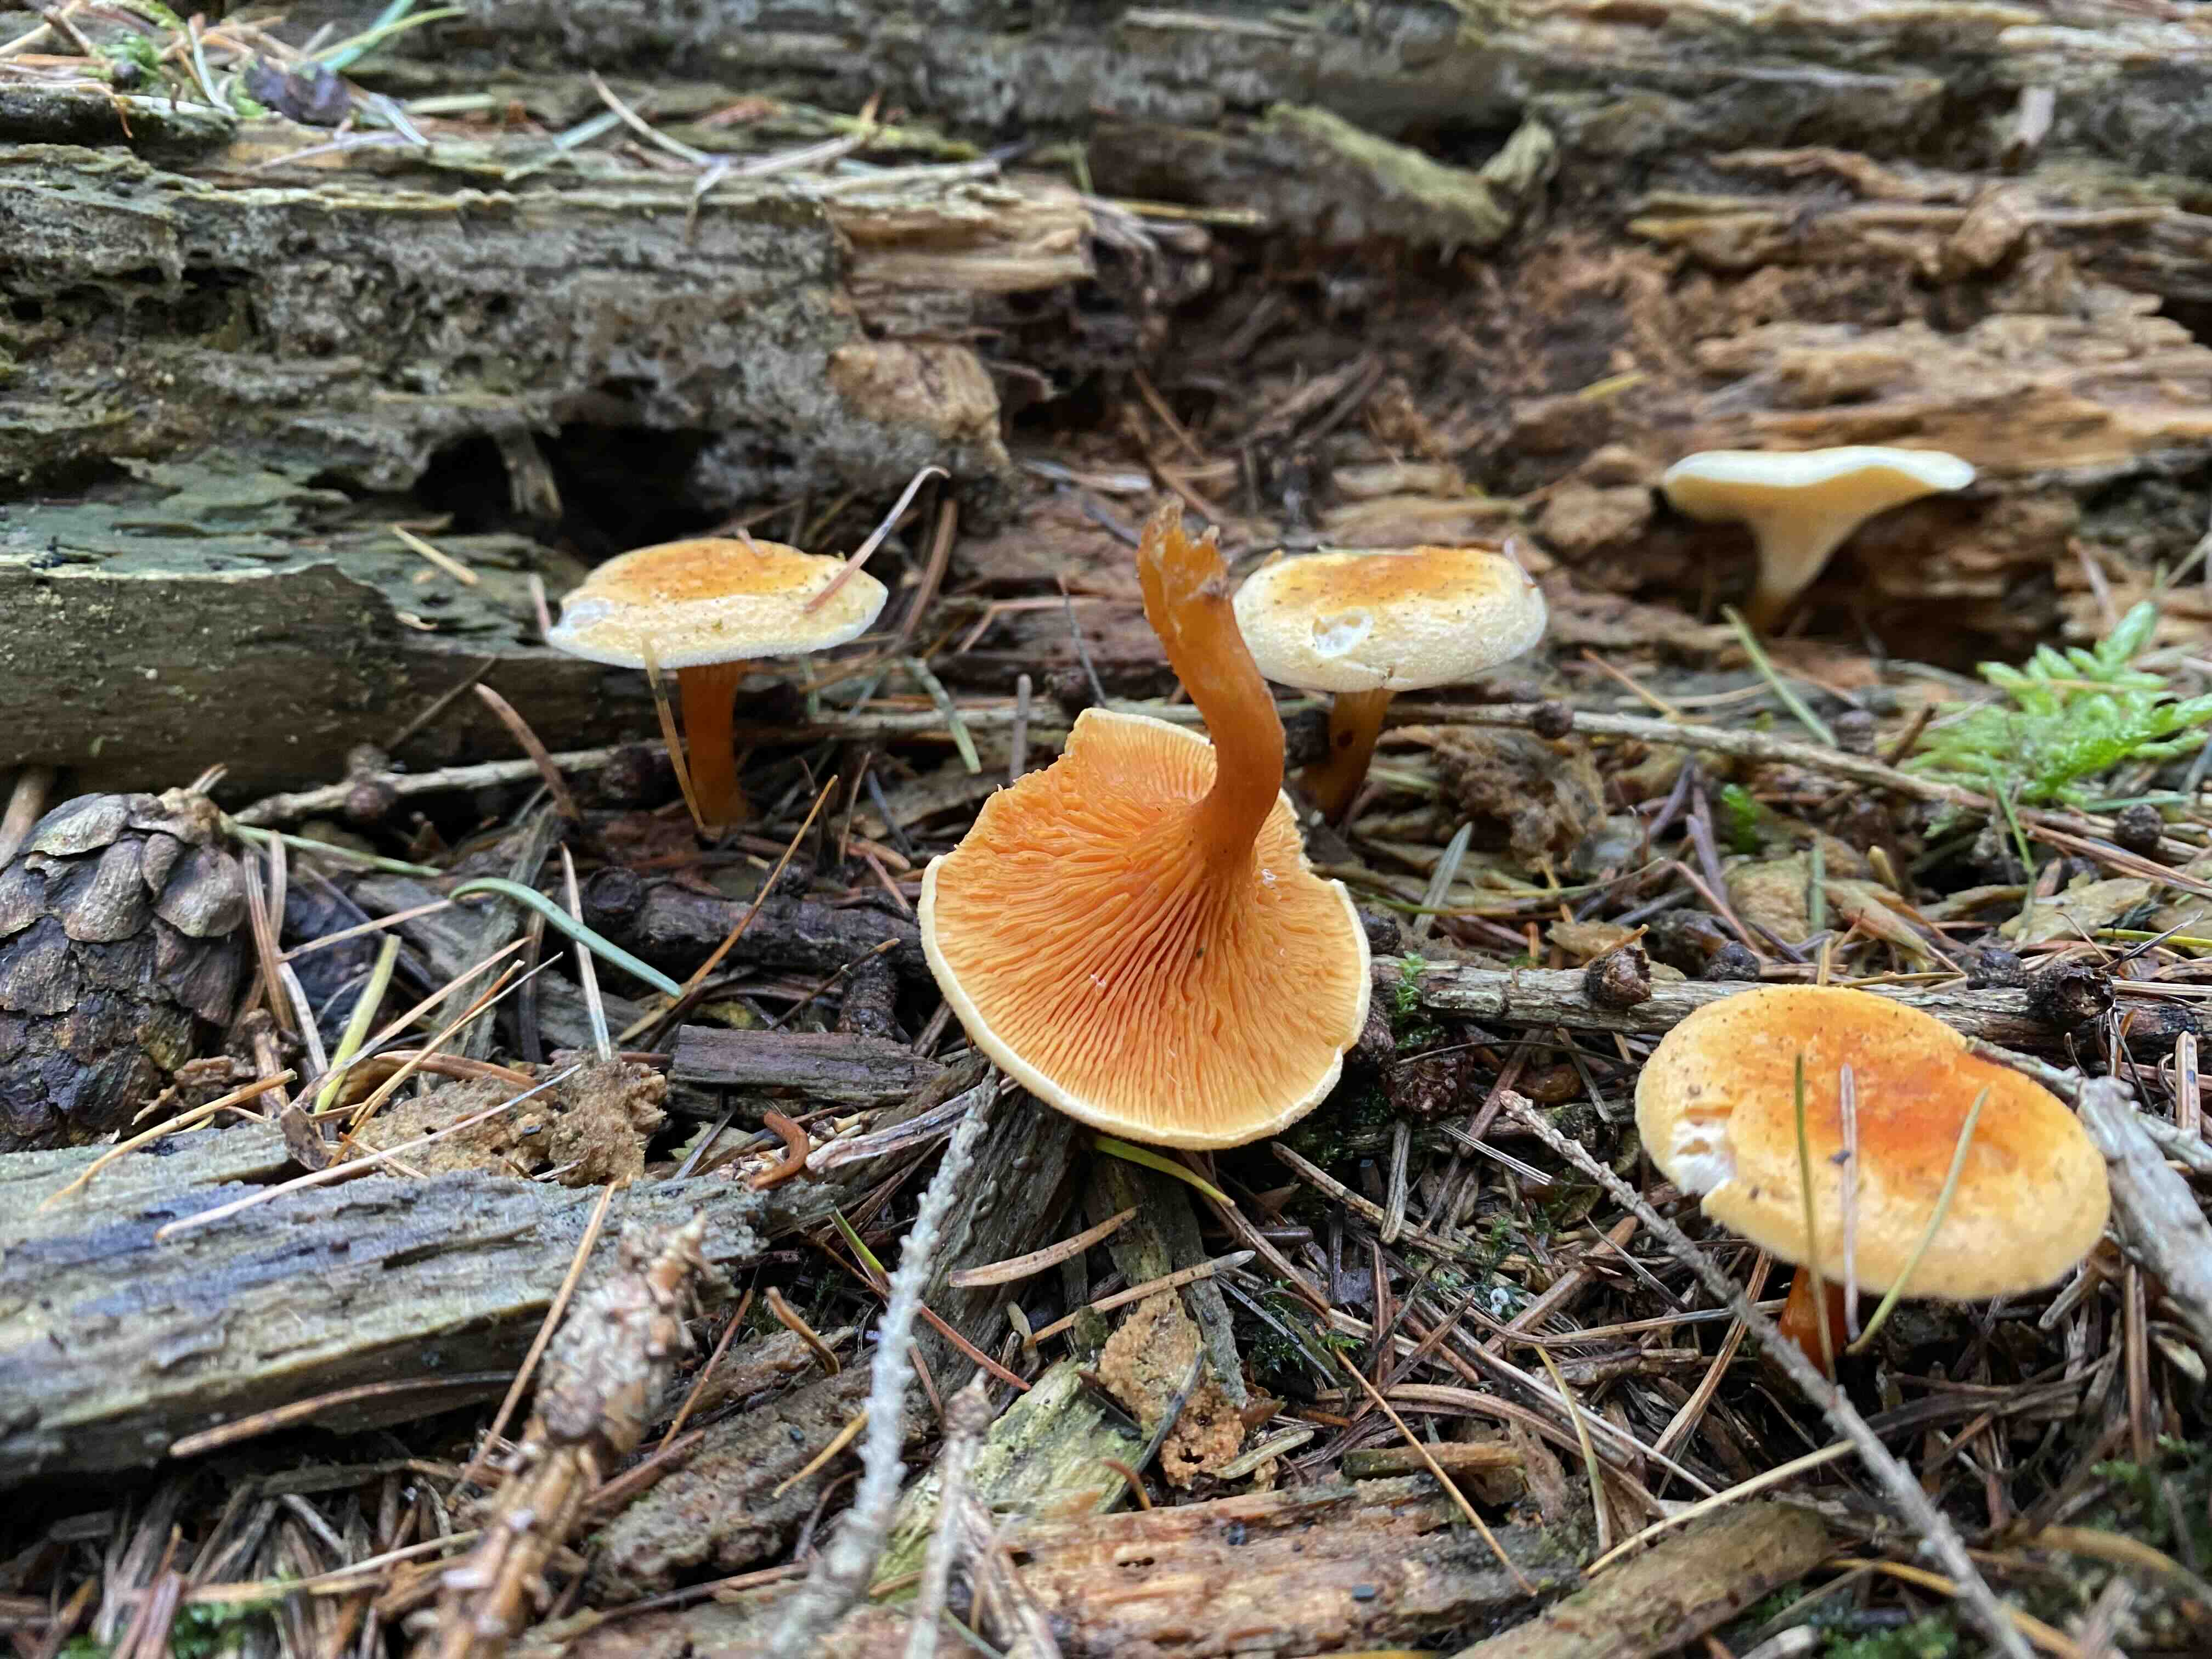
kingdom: Fungi
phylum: Basidiomycota
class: Agaricomycetes
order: Boletales
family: Hygrophoropsidaceae
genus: Hygrophoropsis
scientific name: Hygrophoropsis aurantiaca
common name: almindelig orangekantarel
